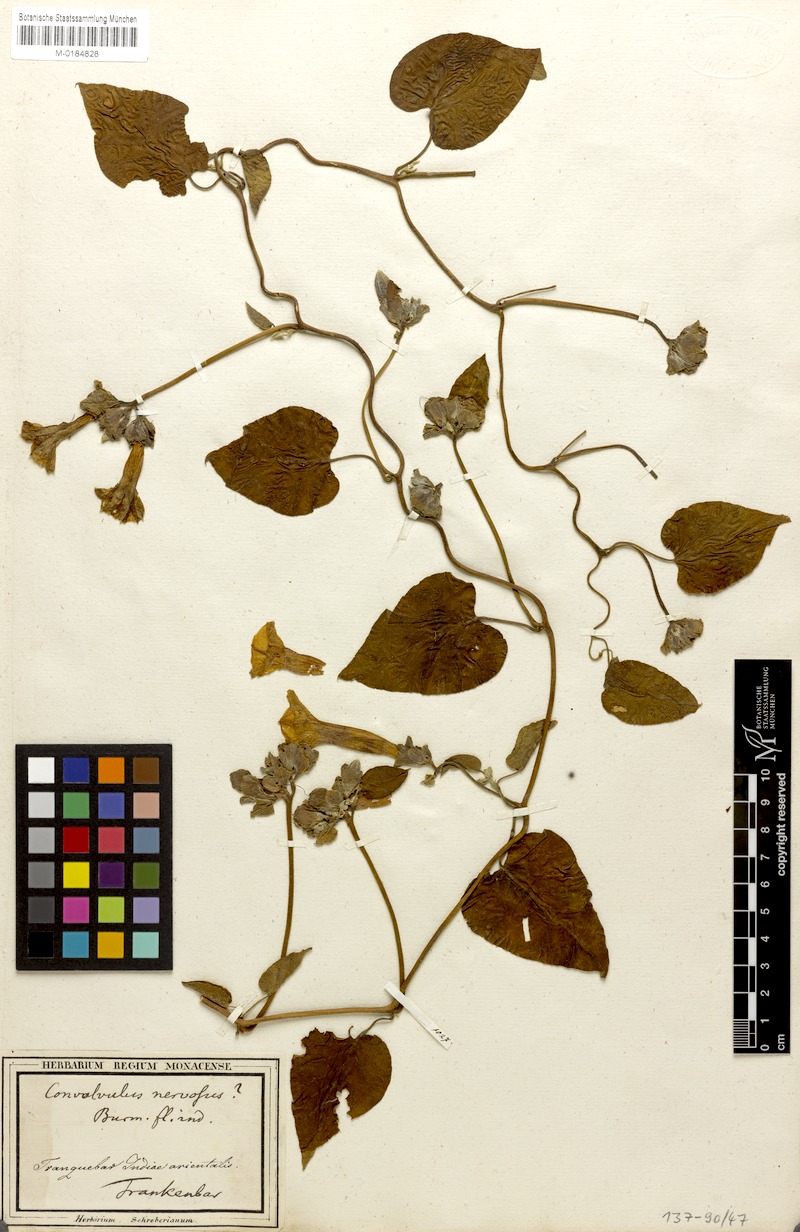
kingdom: Plantae
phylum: Tracheophyta
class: Magnoliopsida
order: Solanales
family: Convolvulaceae
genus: Argyreia
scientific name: Argyreia nervosa
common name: Elephant creeper
